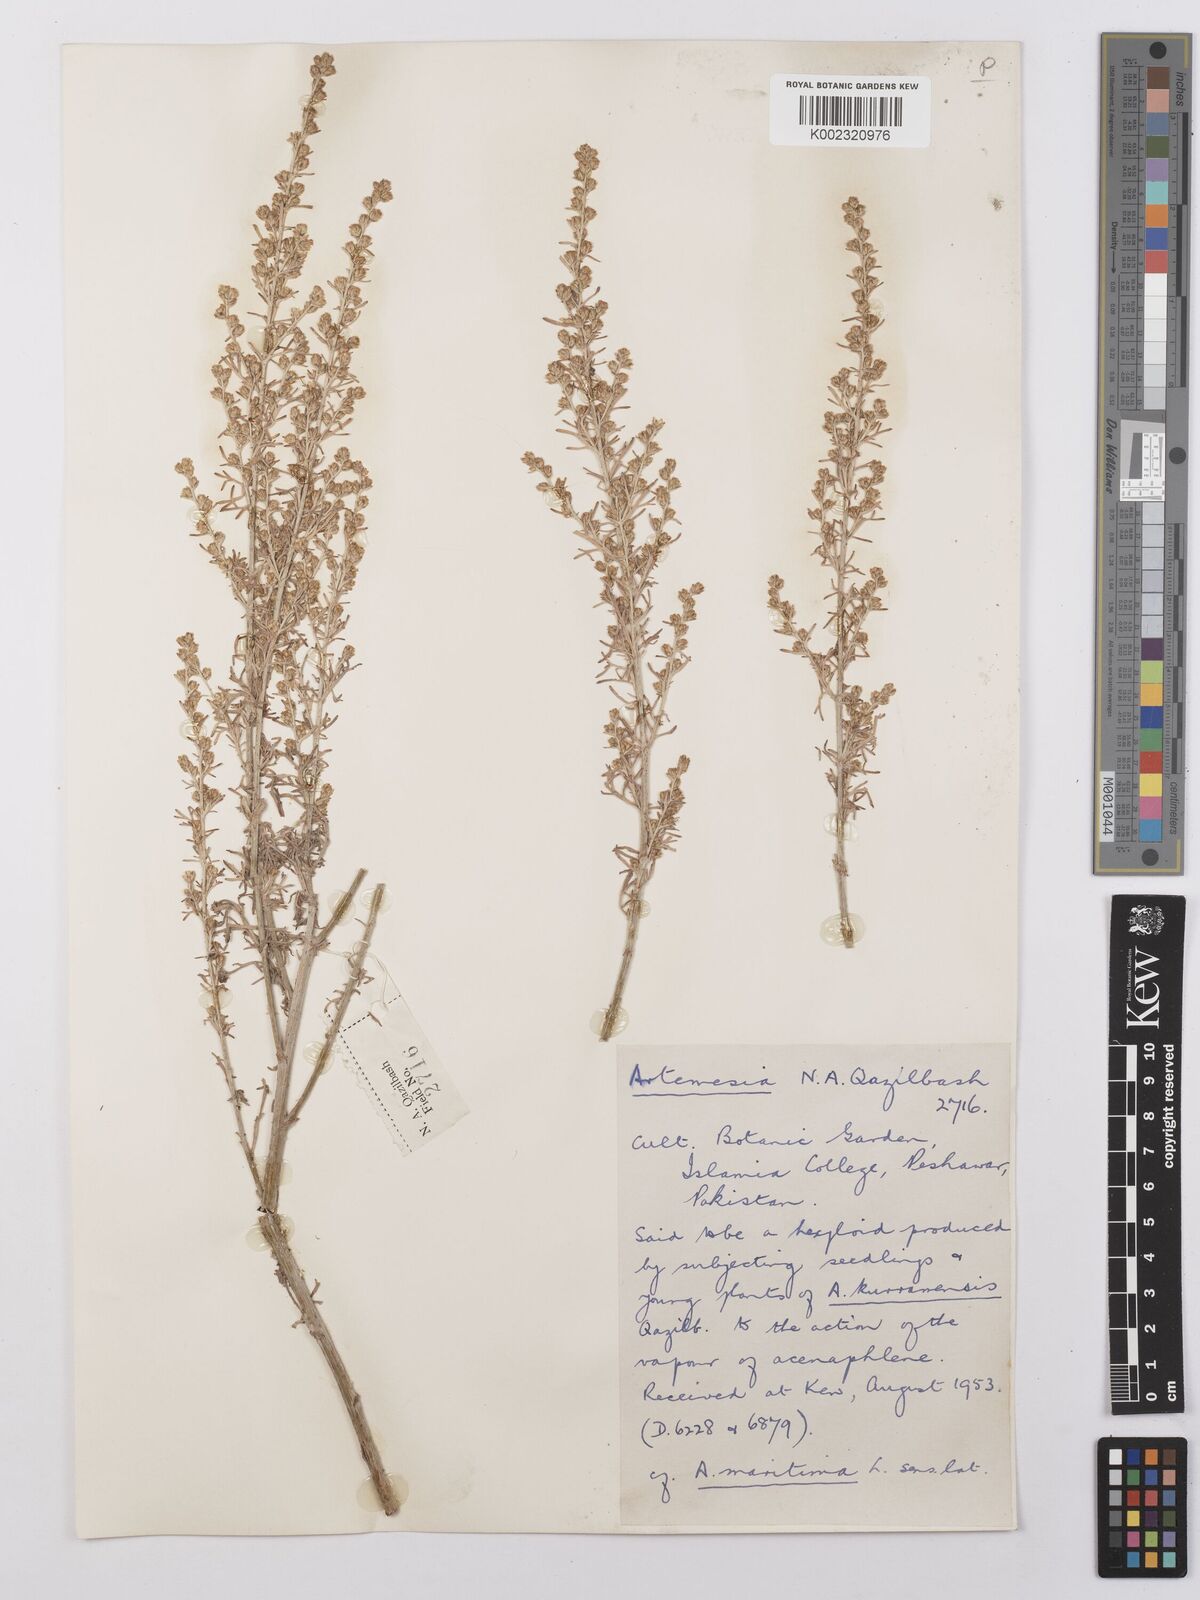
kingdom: Plantae
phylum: Tracheophyta
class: Magnoliopsida
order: Asterales
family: Asteraceae
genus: Artemisia
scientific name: Artemisia
